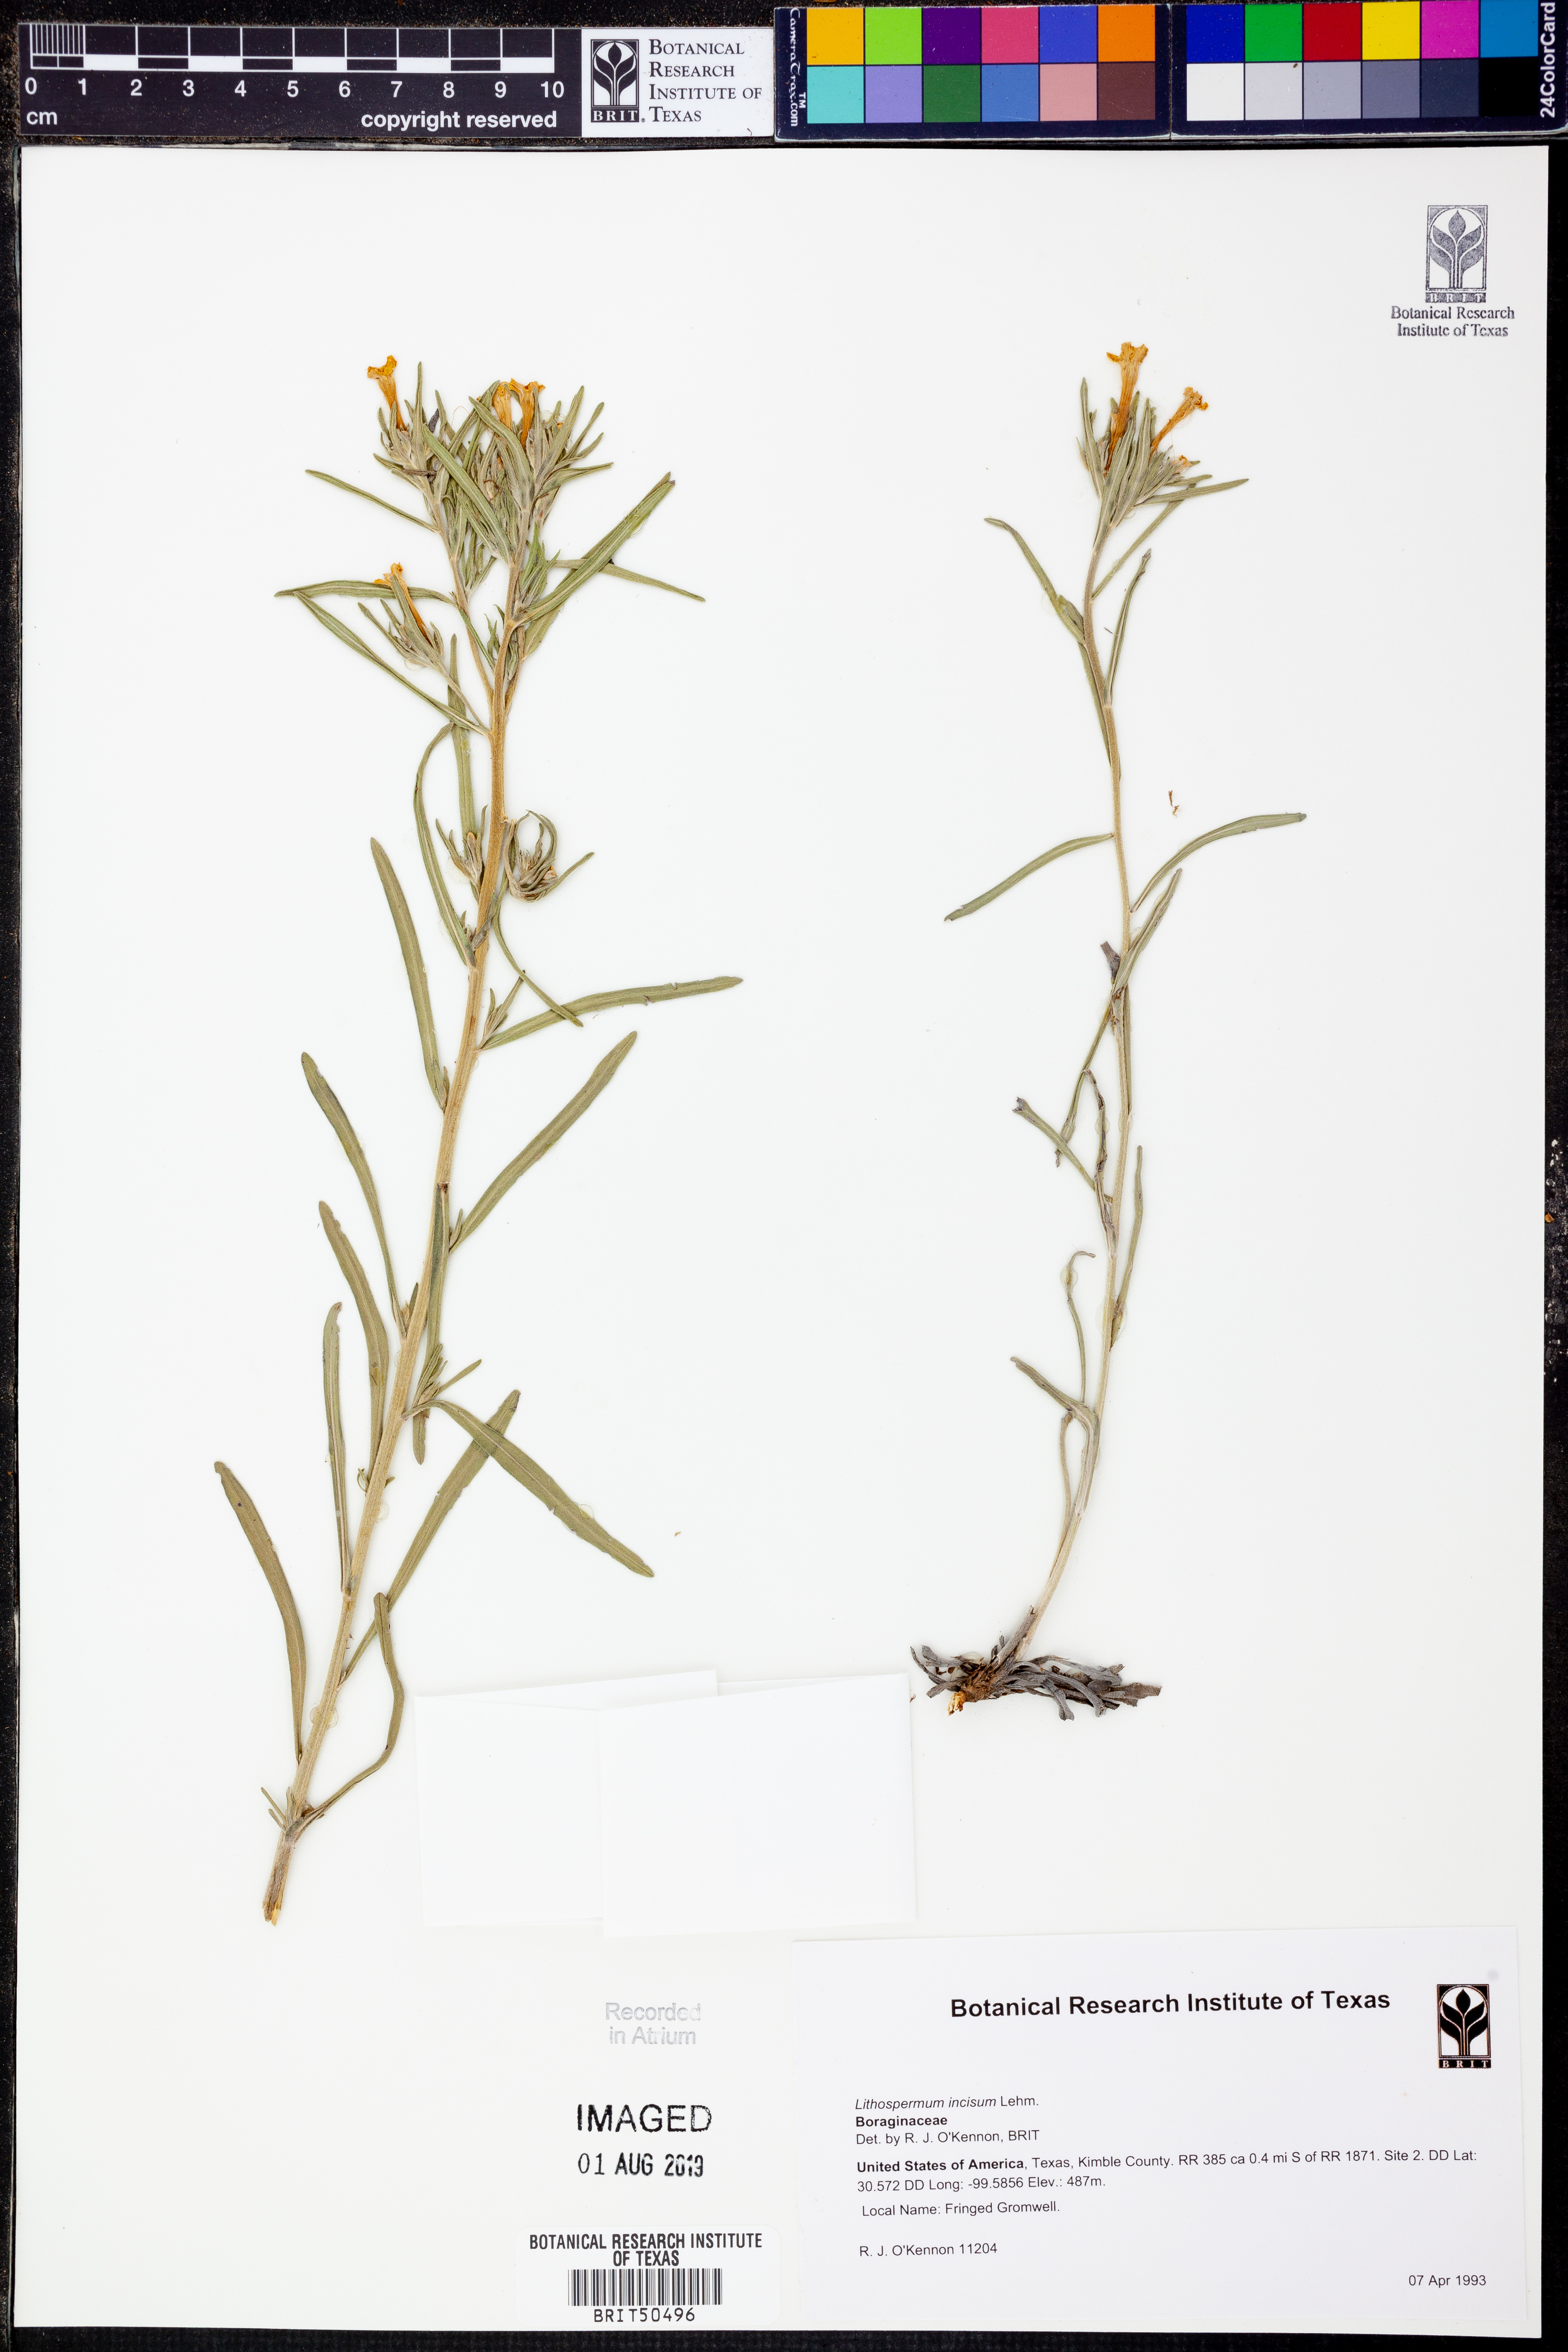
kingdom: Plantae
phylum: Tracheophyta
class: Magnoliopsida
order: Boraginales
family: Boraginaceae
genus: Lithospermum
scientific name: Lithospermum incisum
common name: Fringed gromwell
